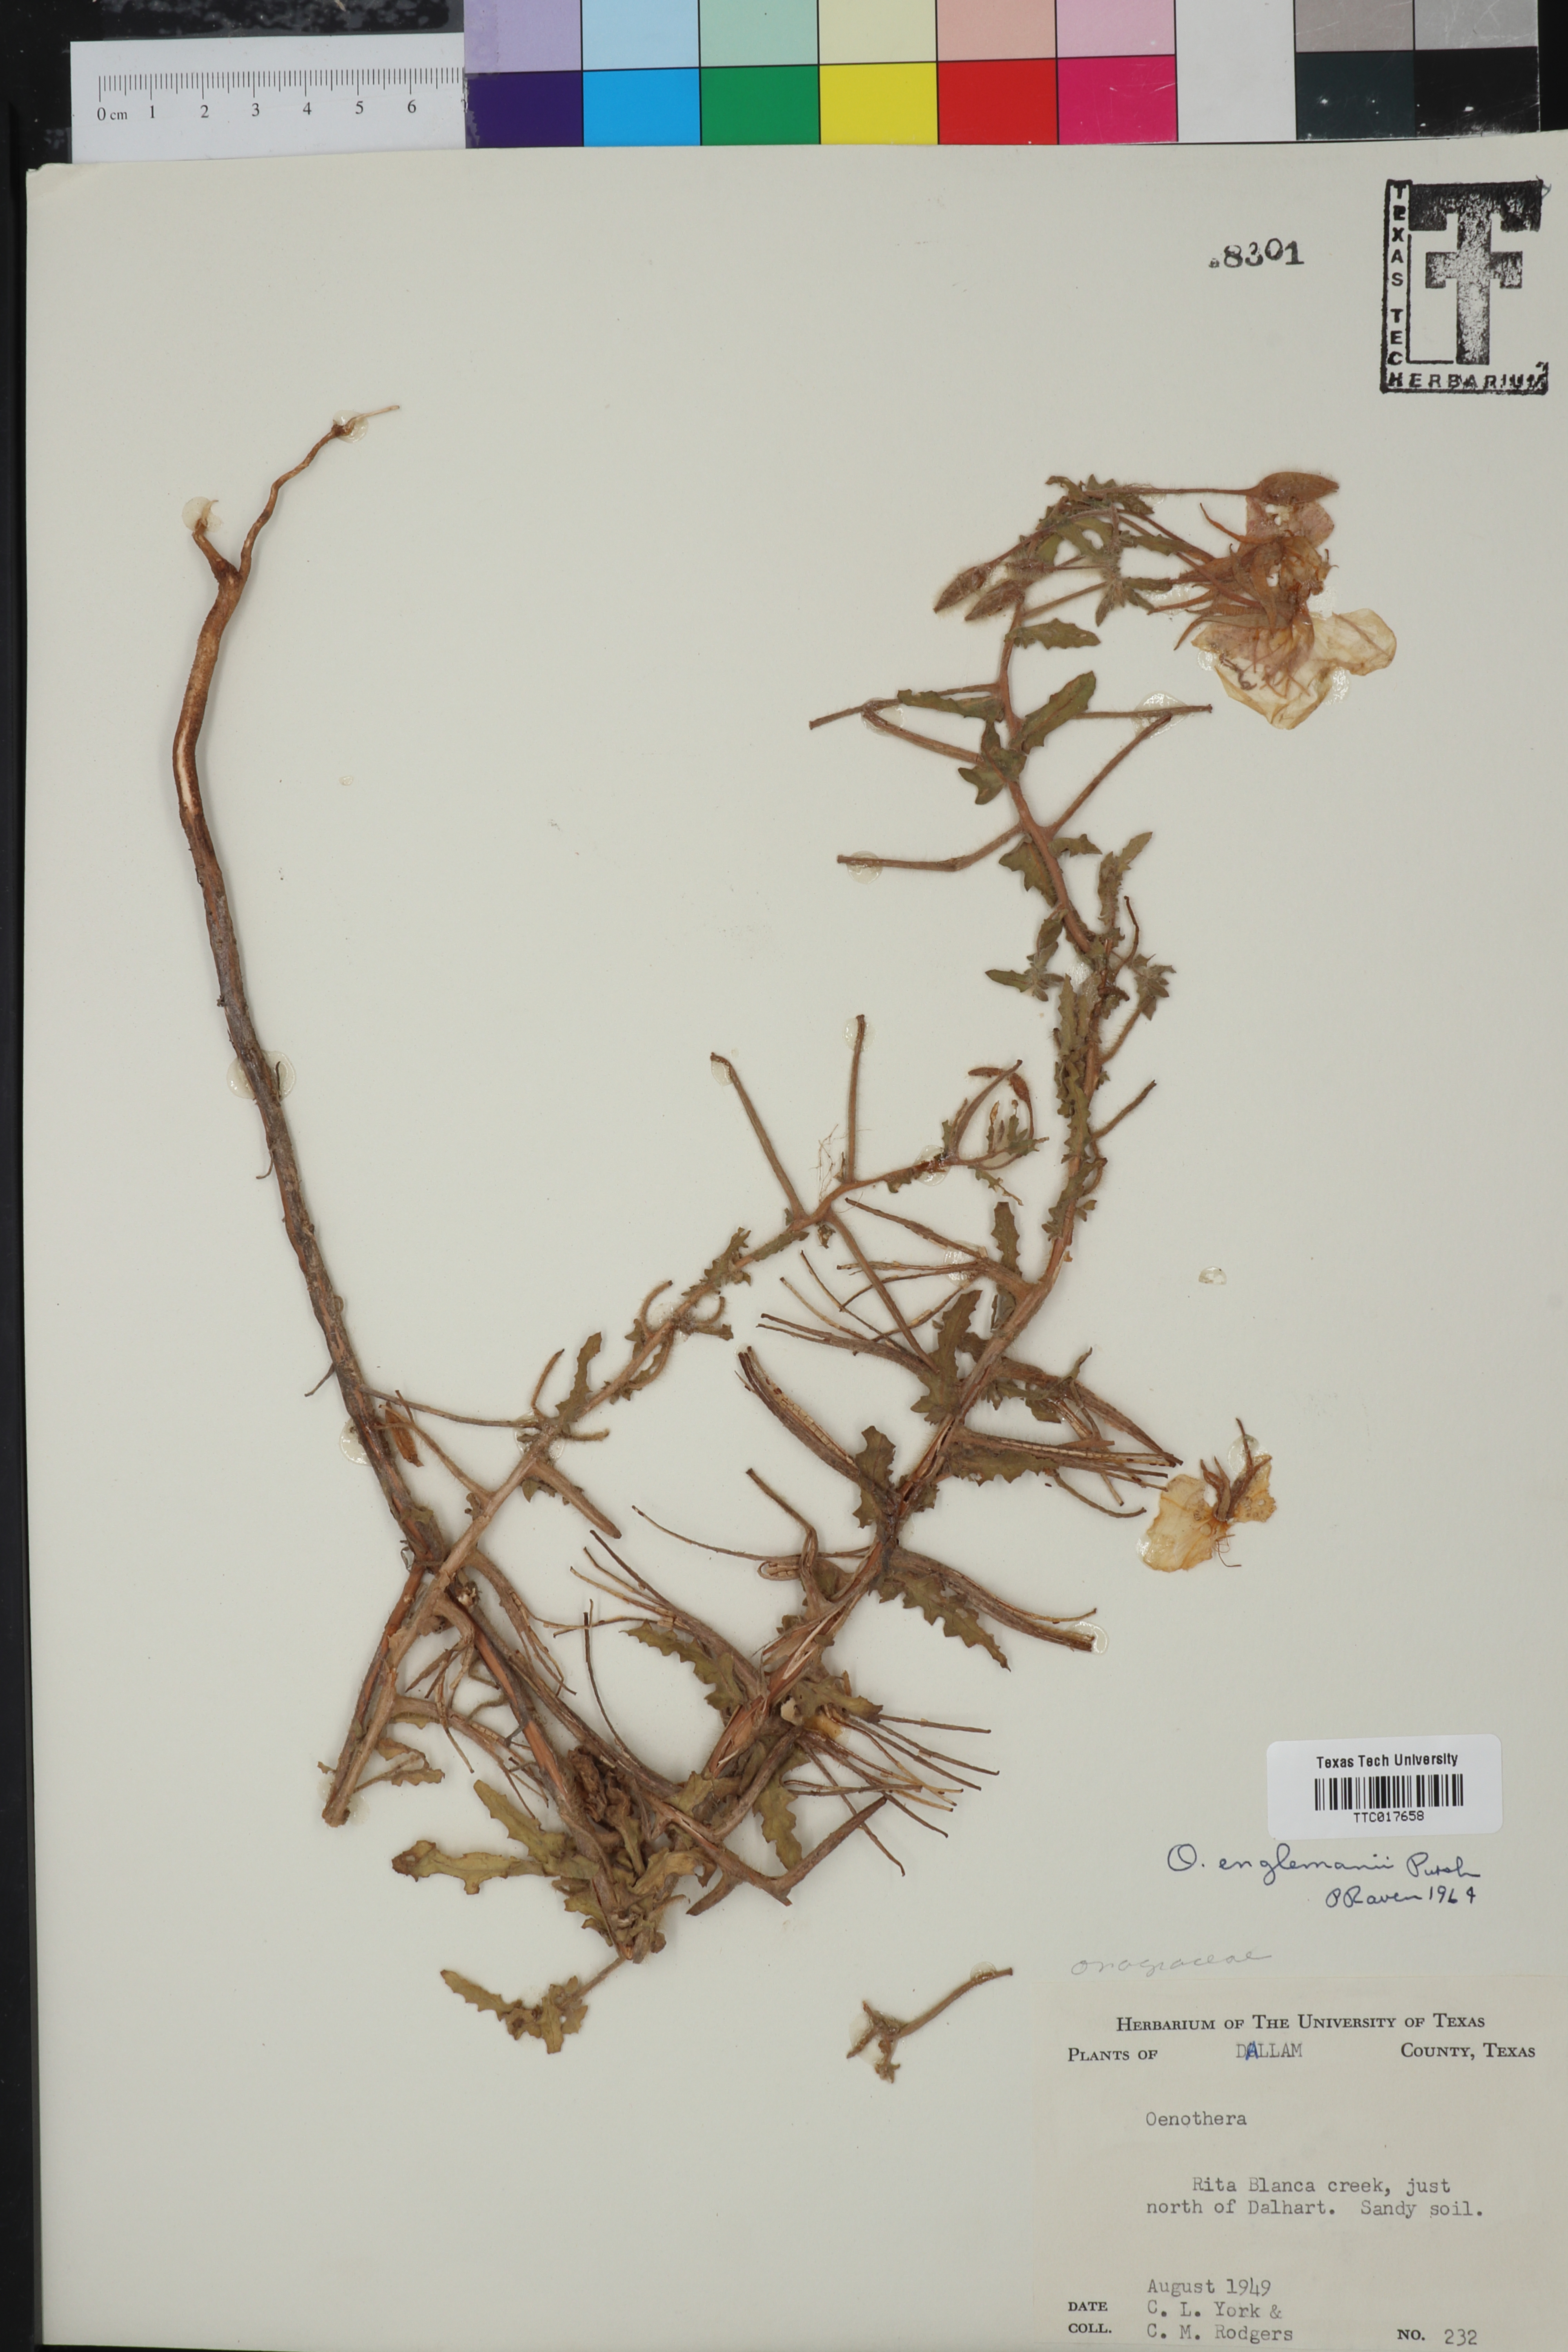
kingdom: Plantae
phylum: Tracheophyta
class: Magnoliopsida
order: Myrtales
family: Onagraceae
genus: Oenothera
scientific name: Oenothera engelmannii
